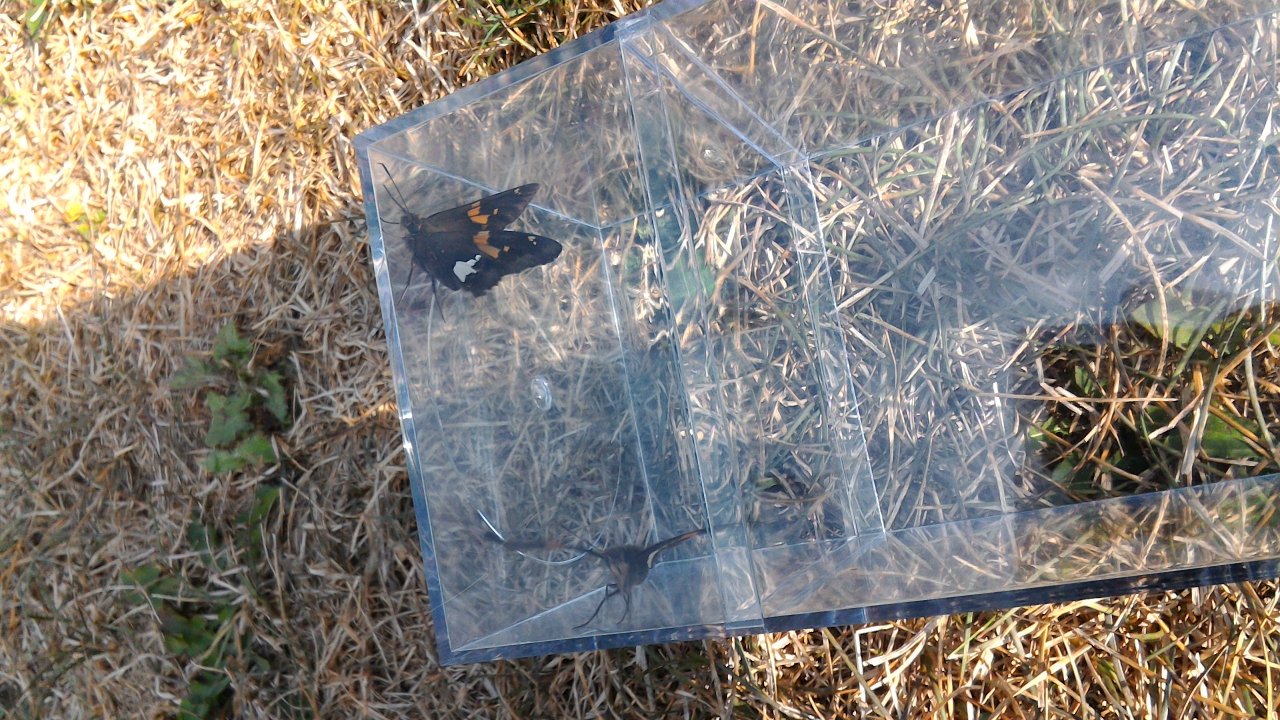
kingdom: Animalia
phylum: Arthropoda
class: Insecta
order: Lepidoptera
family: Hesperiidae
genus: Epargyreus
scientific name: Epargyreus clarus
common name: Silver-spotted Skipper
